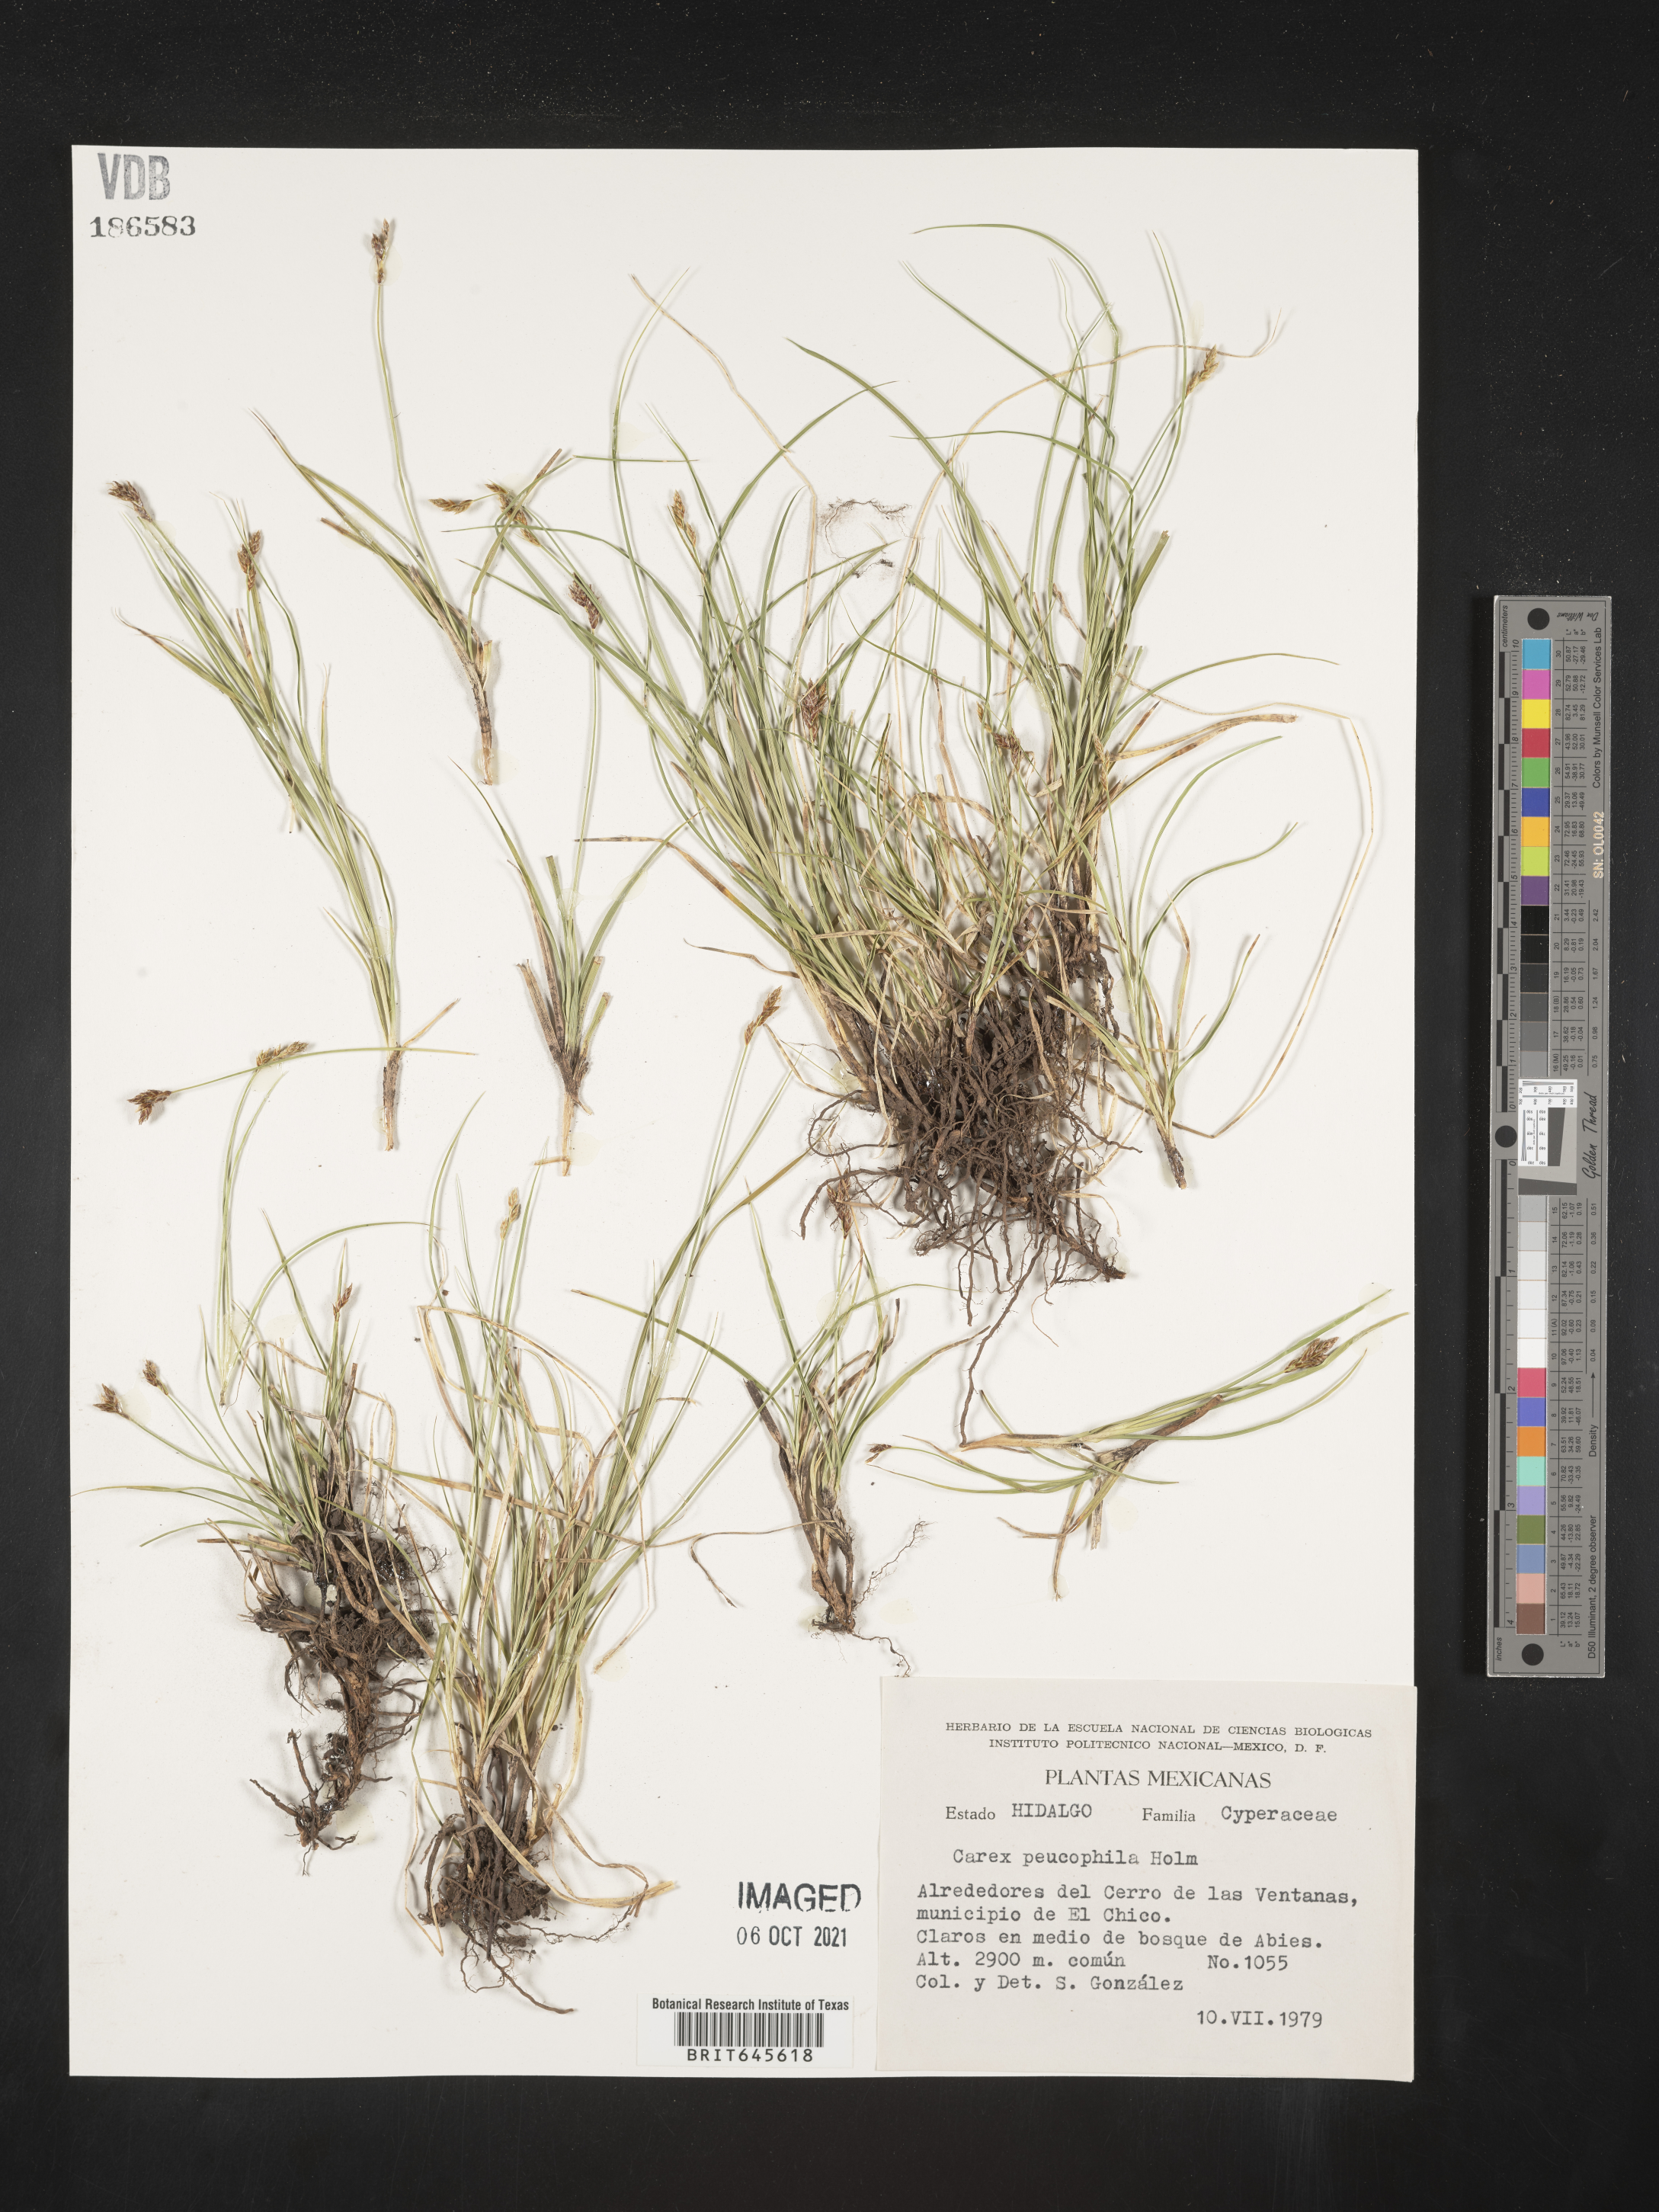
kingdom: Plantae
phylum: Tracheophyta
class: Liliopsida
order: Poales
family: Cyperaceae
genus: Carex
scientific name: Carex
